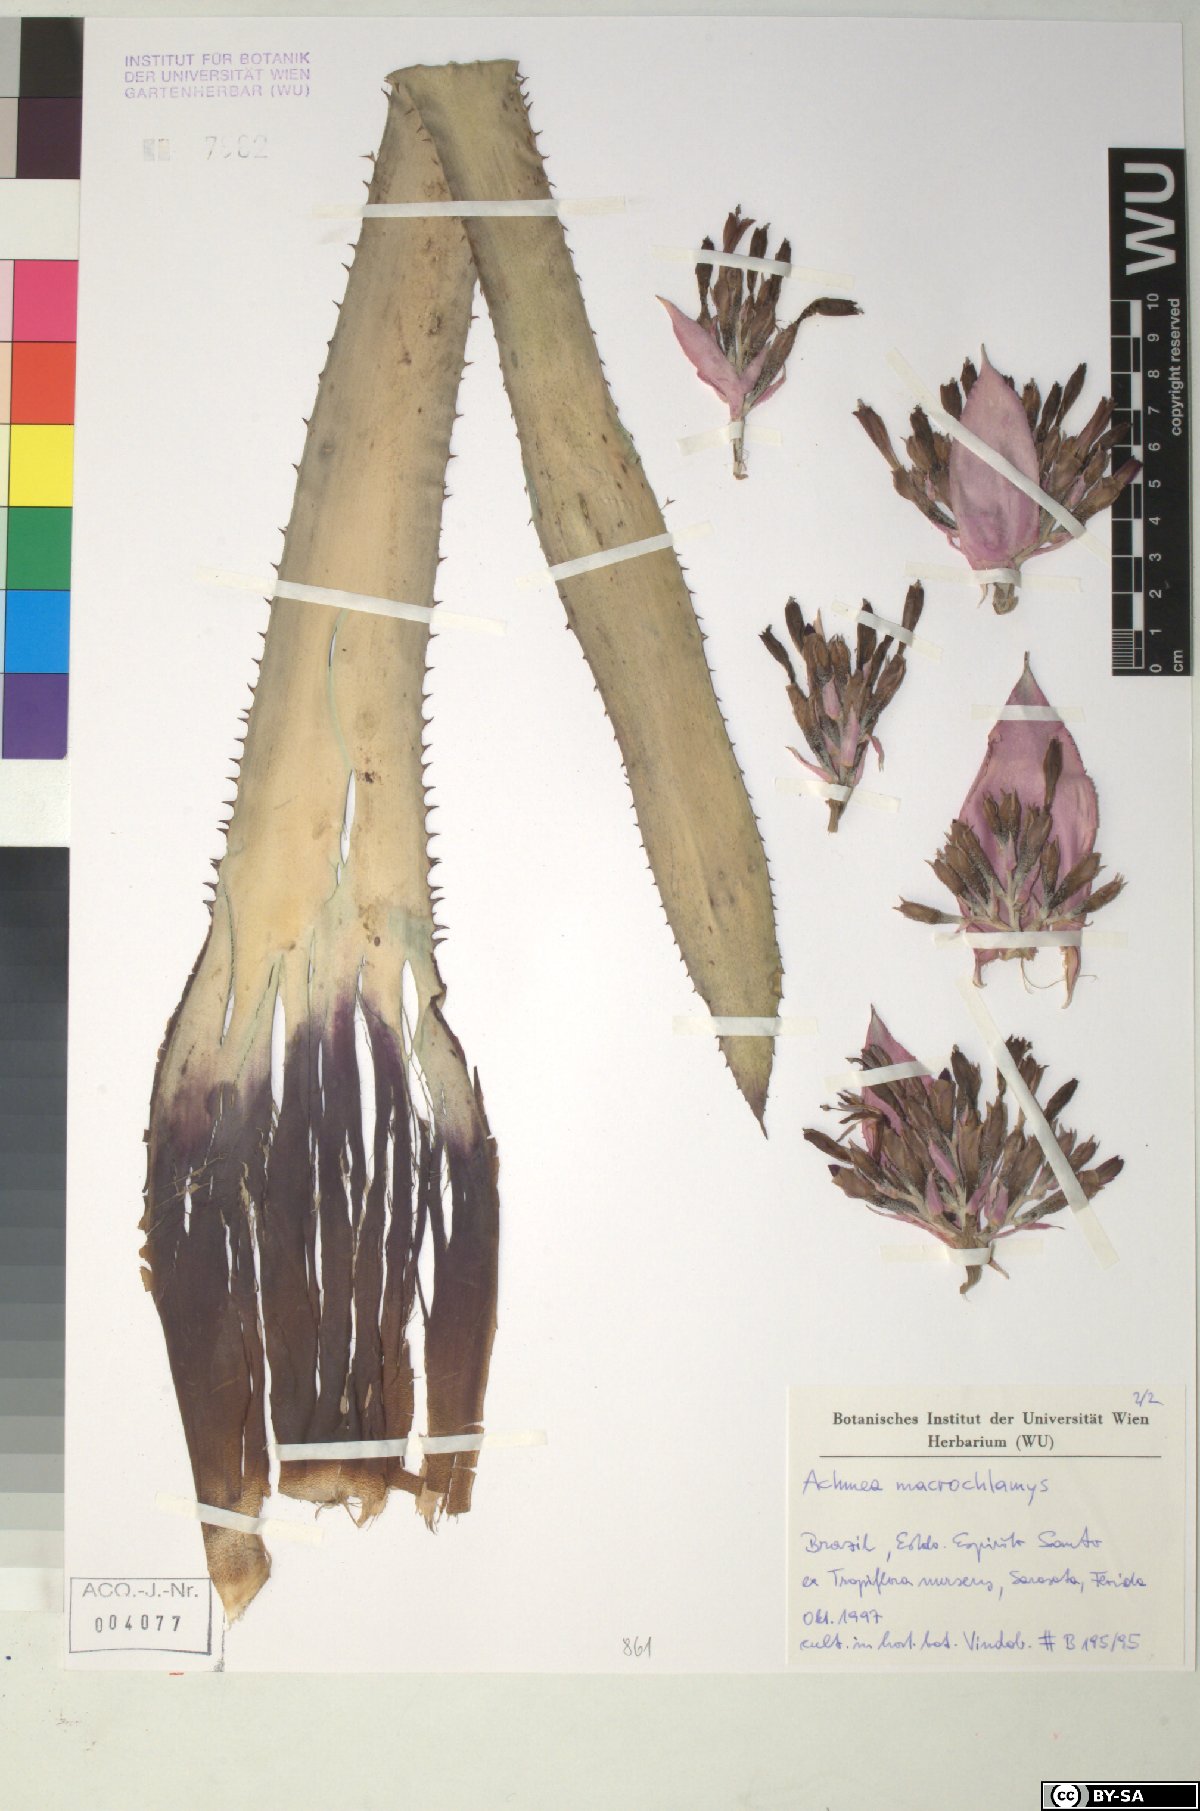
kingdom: Plantae
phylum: Tracheophyta
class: Liliopsida
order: Poales
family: Bromeliaceae
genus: Aechmea
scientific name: Aechmea macrochlamys
